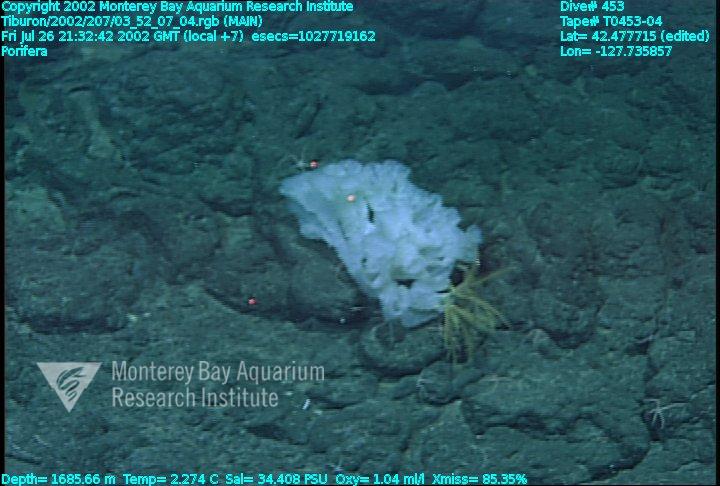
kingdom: Animalia
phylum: Porifera
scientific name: Porifera
